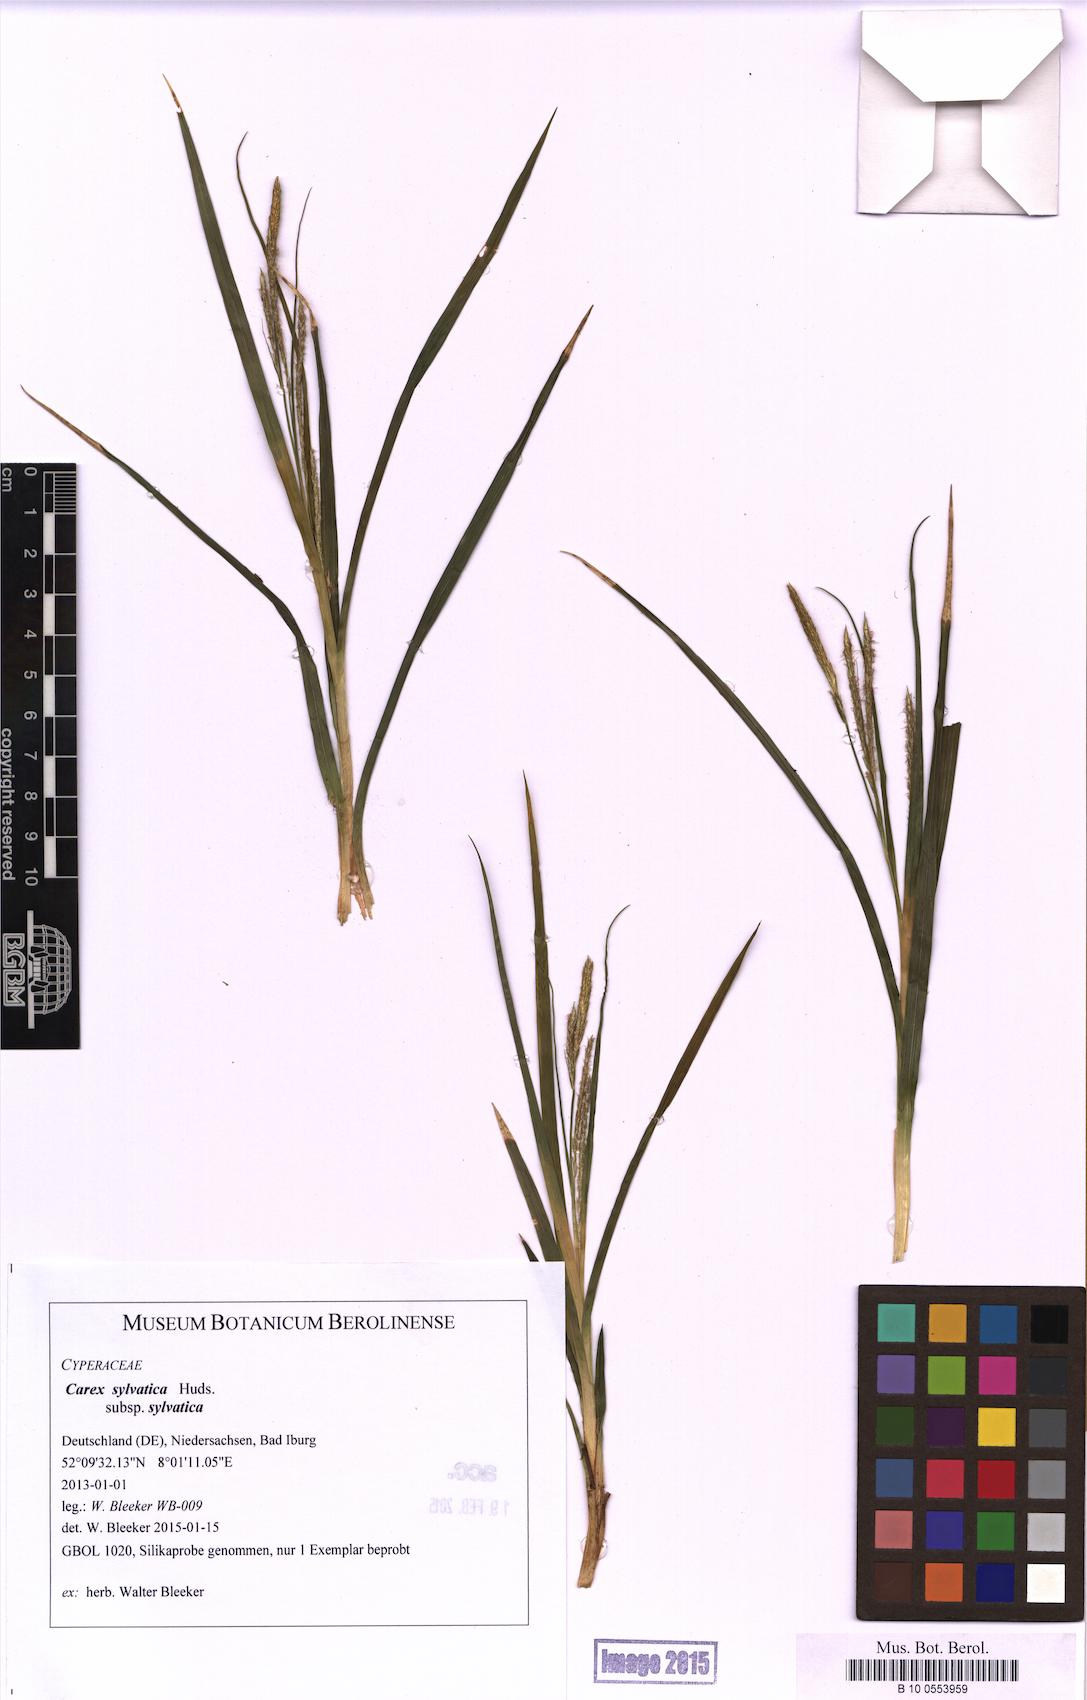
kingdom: Plantae
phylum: Tracheophyta
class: Liliopsida
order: Poales
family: Cyperaceae
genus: Carex
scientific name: Carex sylvatica
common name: Wood-sedge
